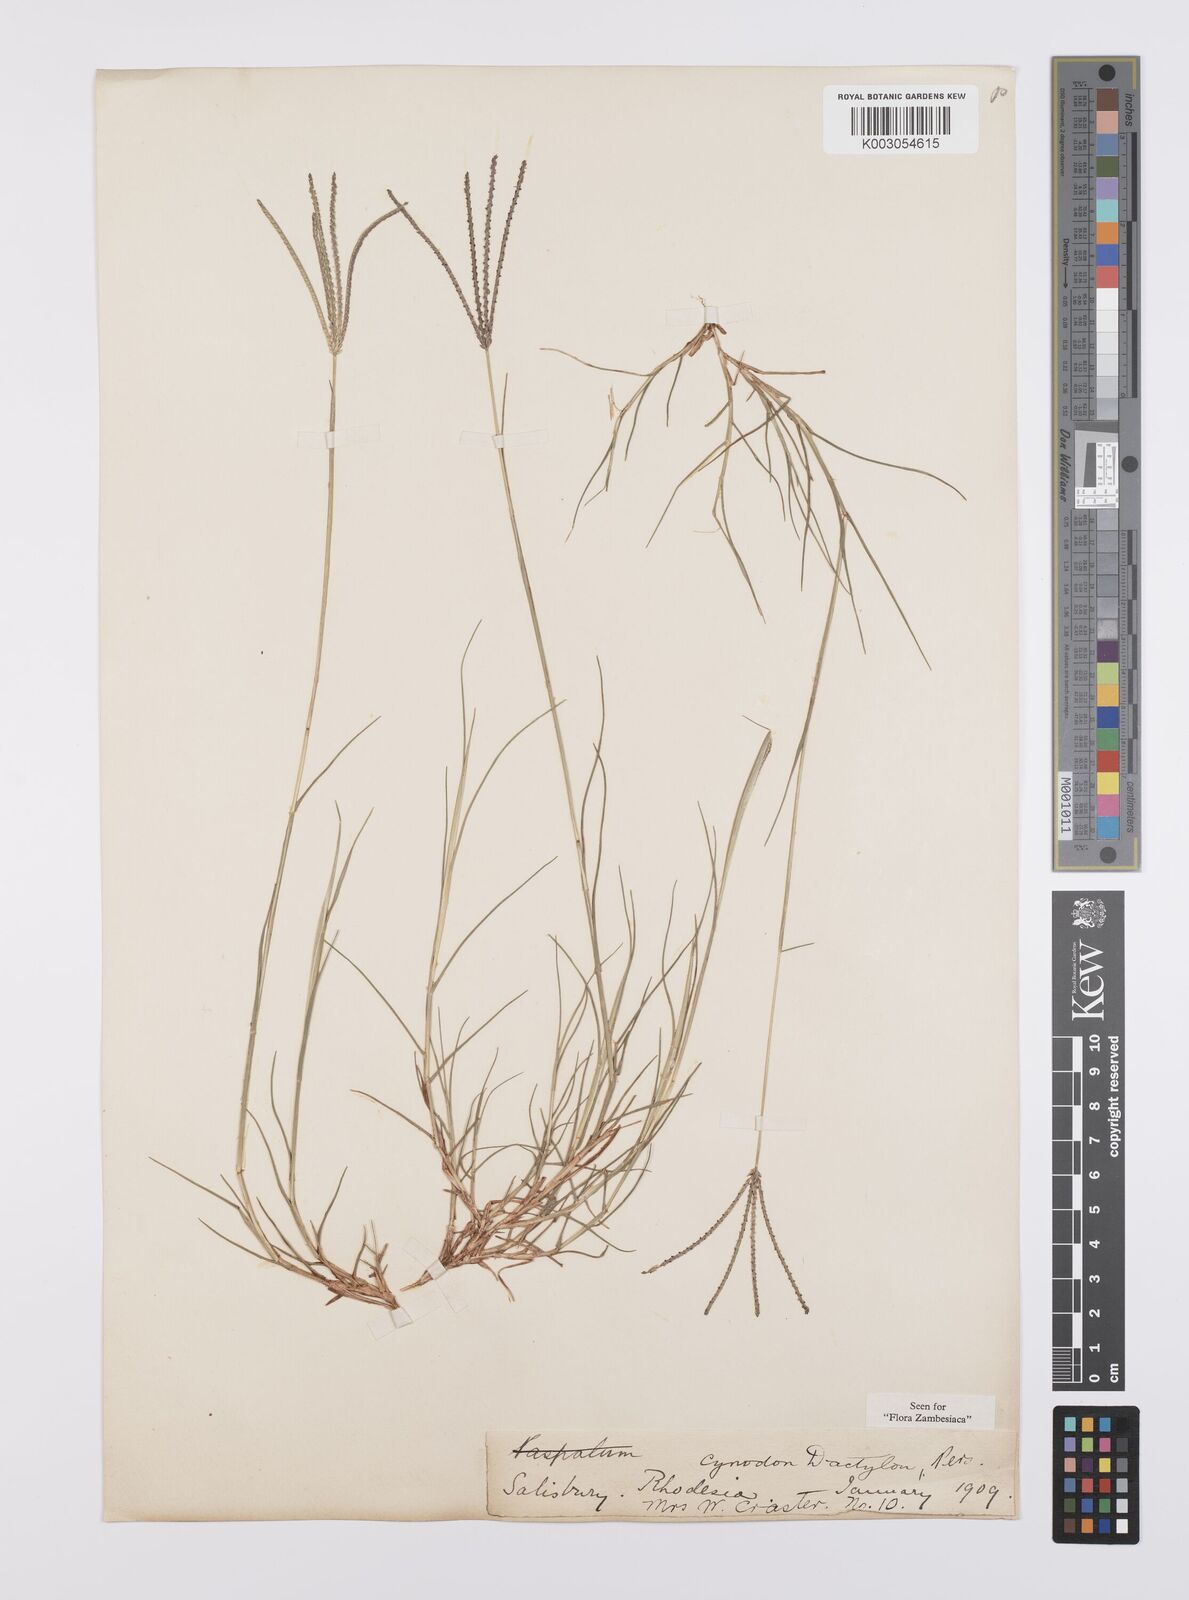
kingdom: Plantae
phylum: Tracheophyta
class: Liliopsida
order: Poales
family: Poaceae
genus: Cynodon
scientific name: Cynodon dactylon
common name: Bermuda grass
